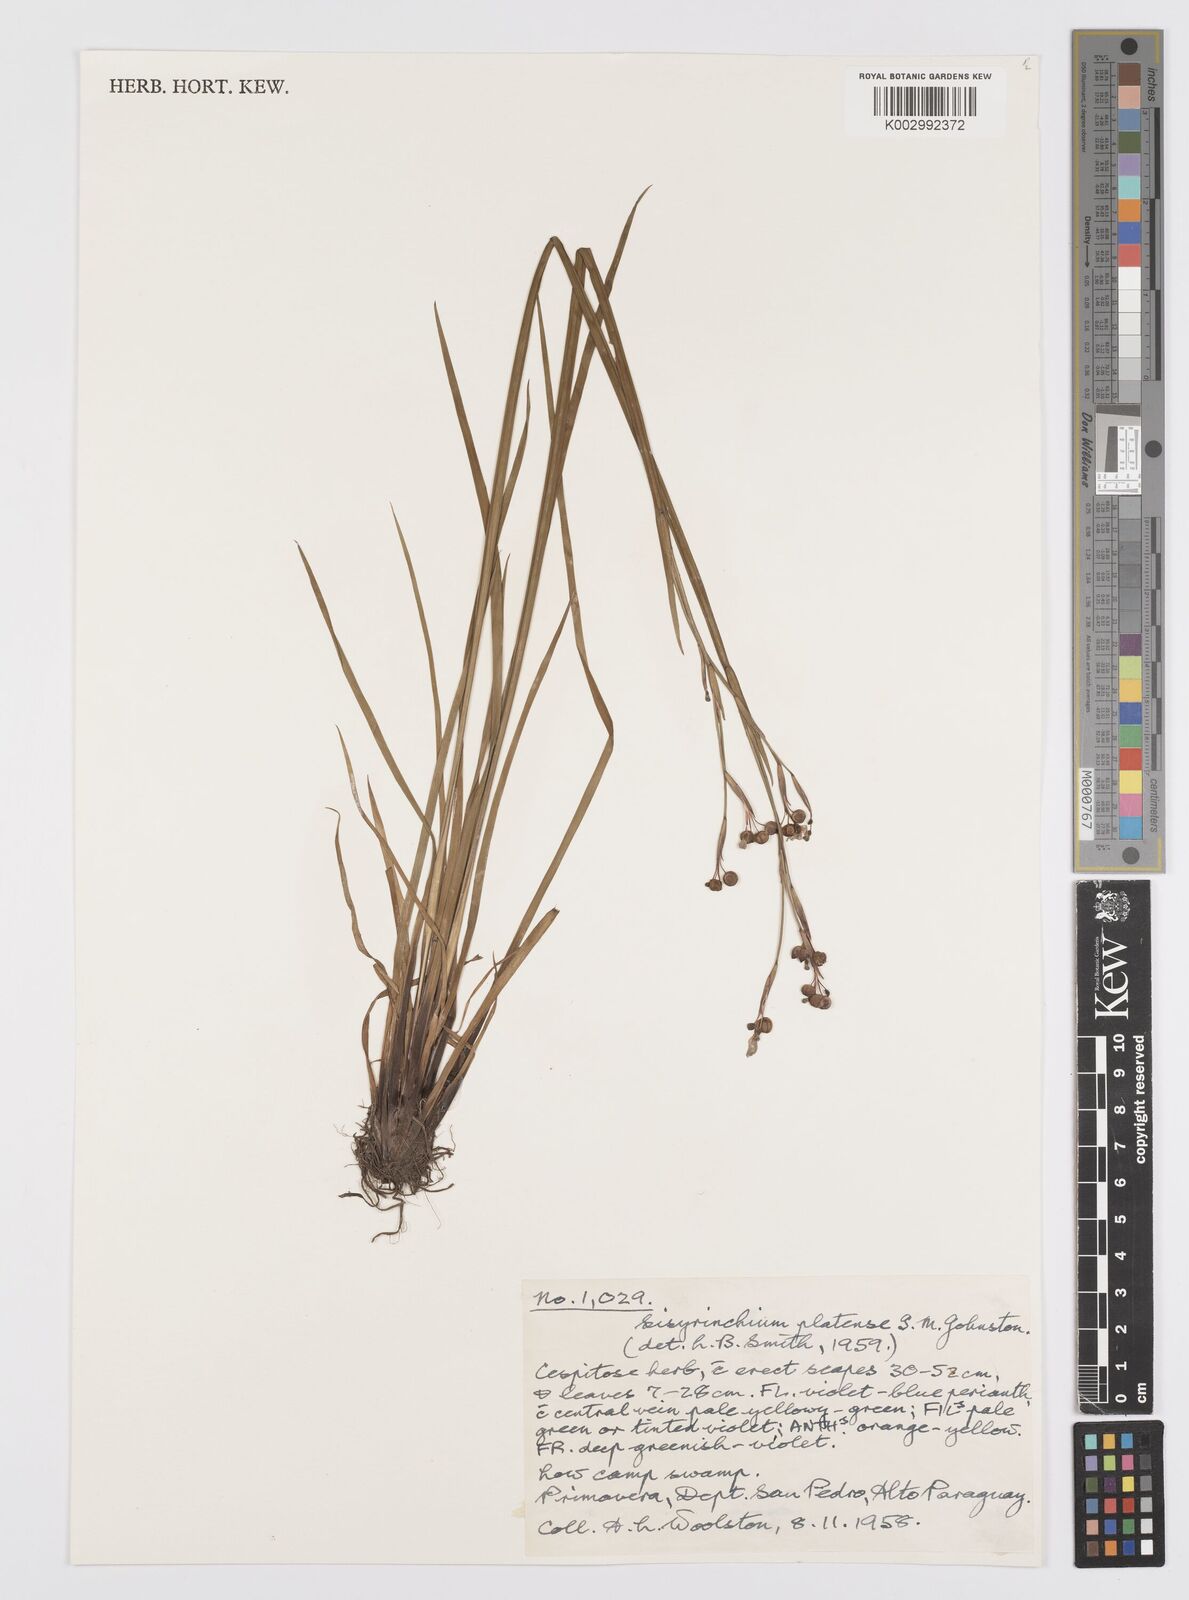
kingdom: Plantae
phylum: Tracheophyta
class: Liliopsida
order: Asparagales
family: Iridaceae
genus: Sisyrinchium
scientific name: Sisyrinchium platense
